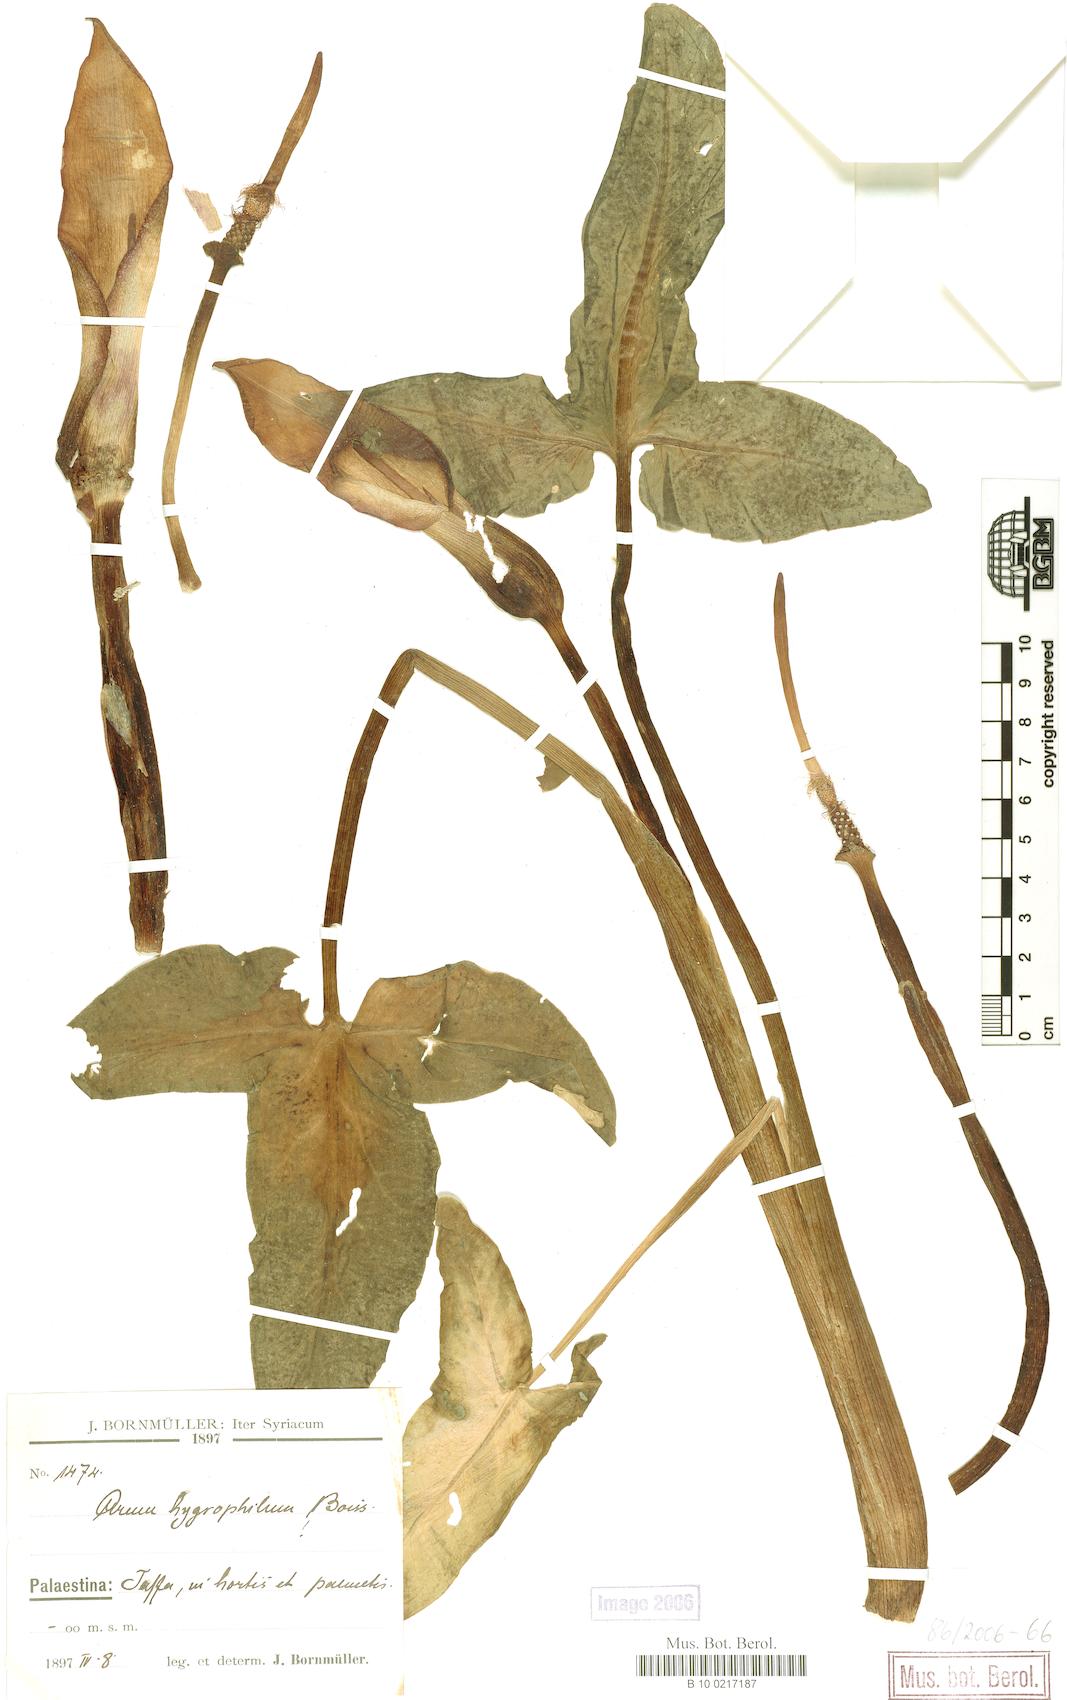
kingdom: Plantae
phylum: Tracheophyta
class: Liliopsida
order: Alismatales
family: Araceae
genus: Arum
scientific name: Arum hygrophilum
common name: Water arum
